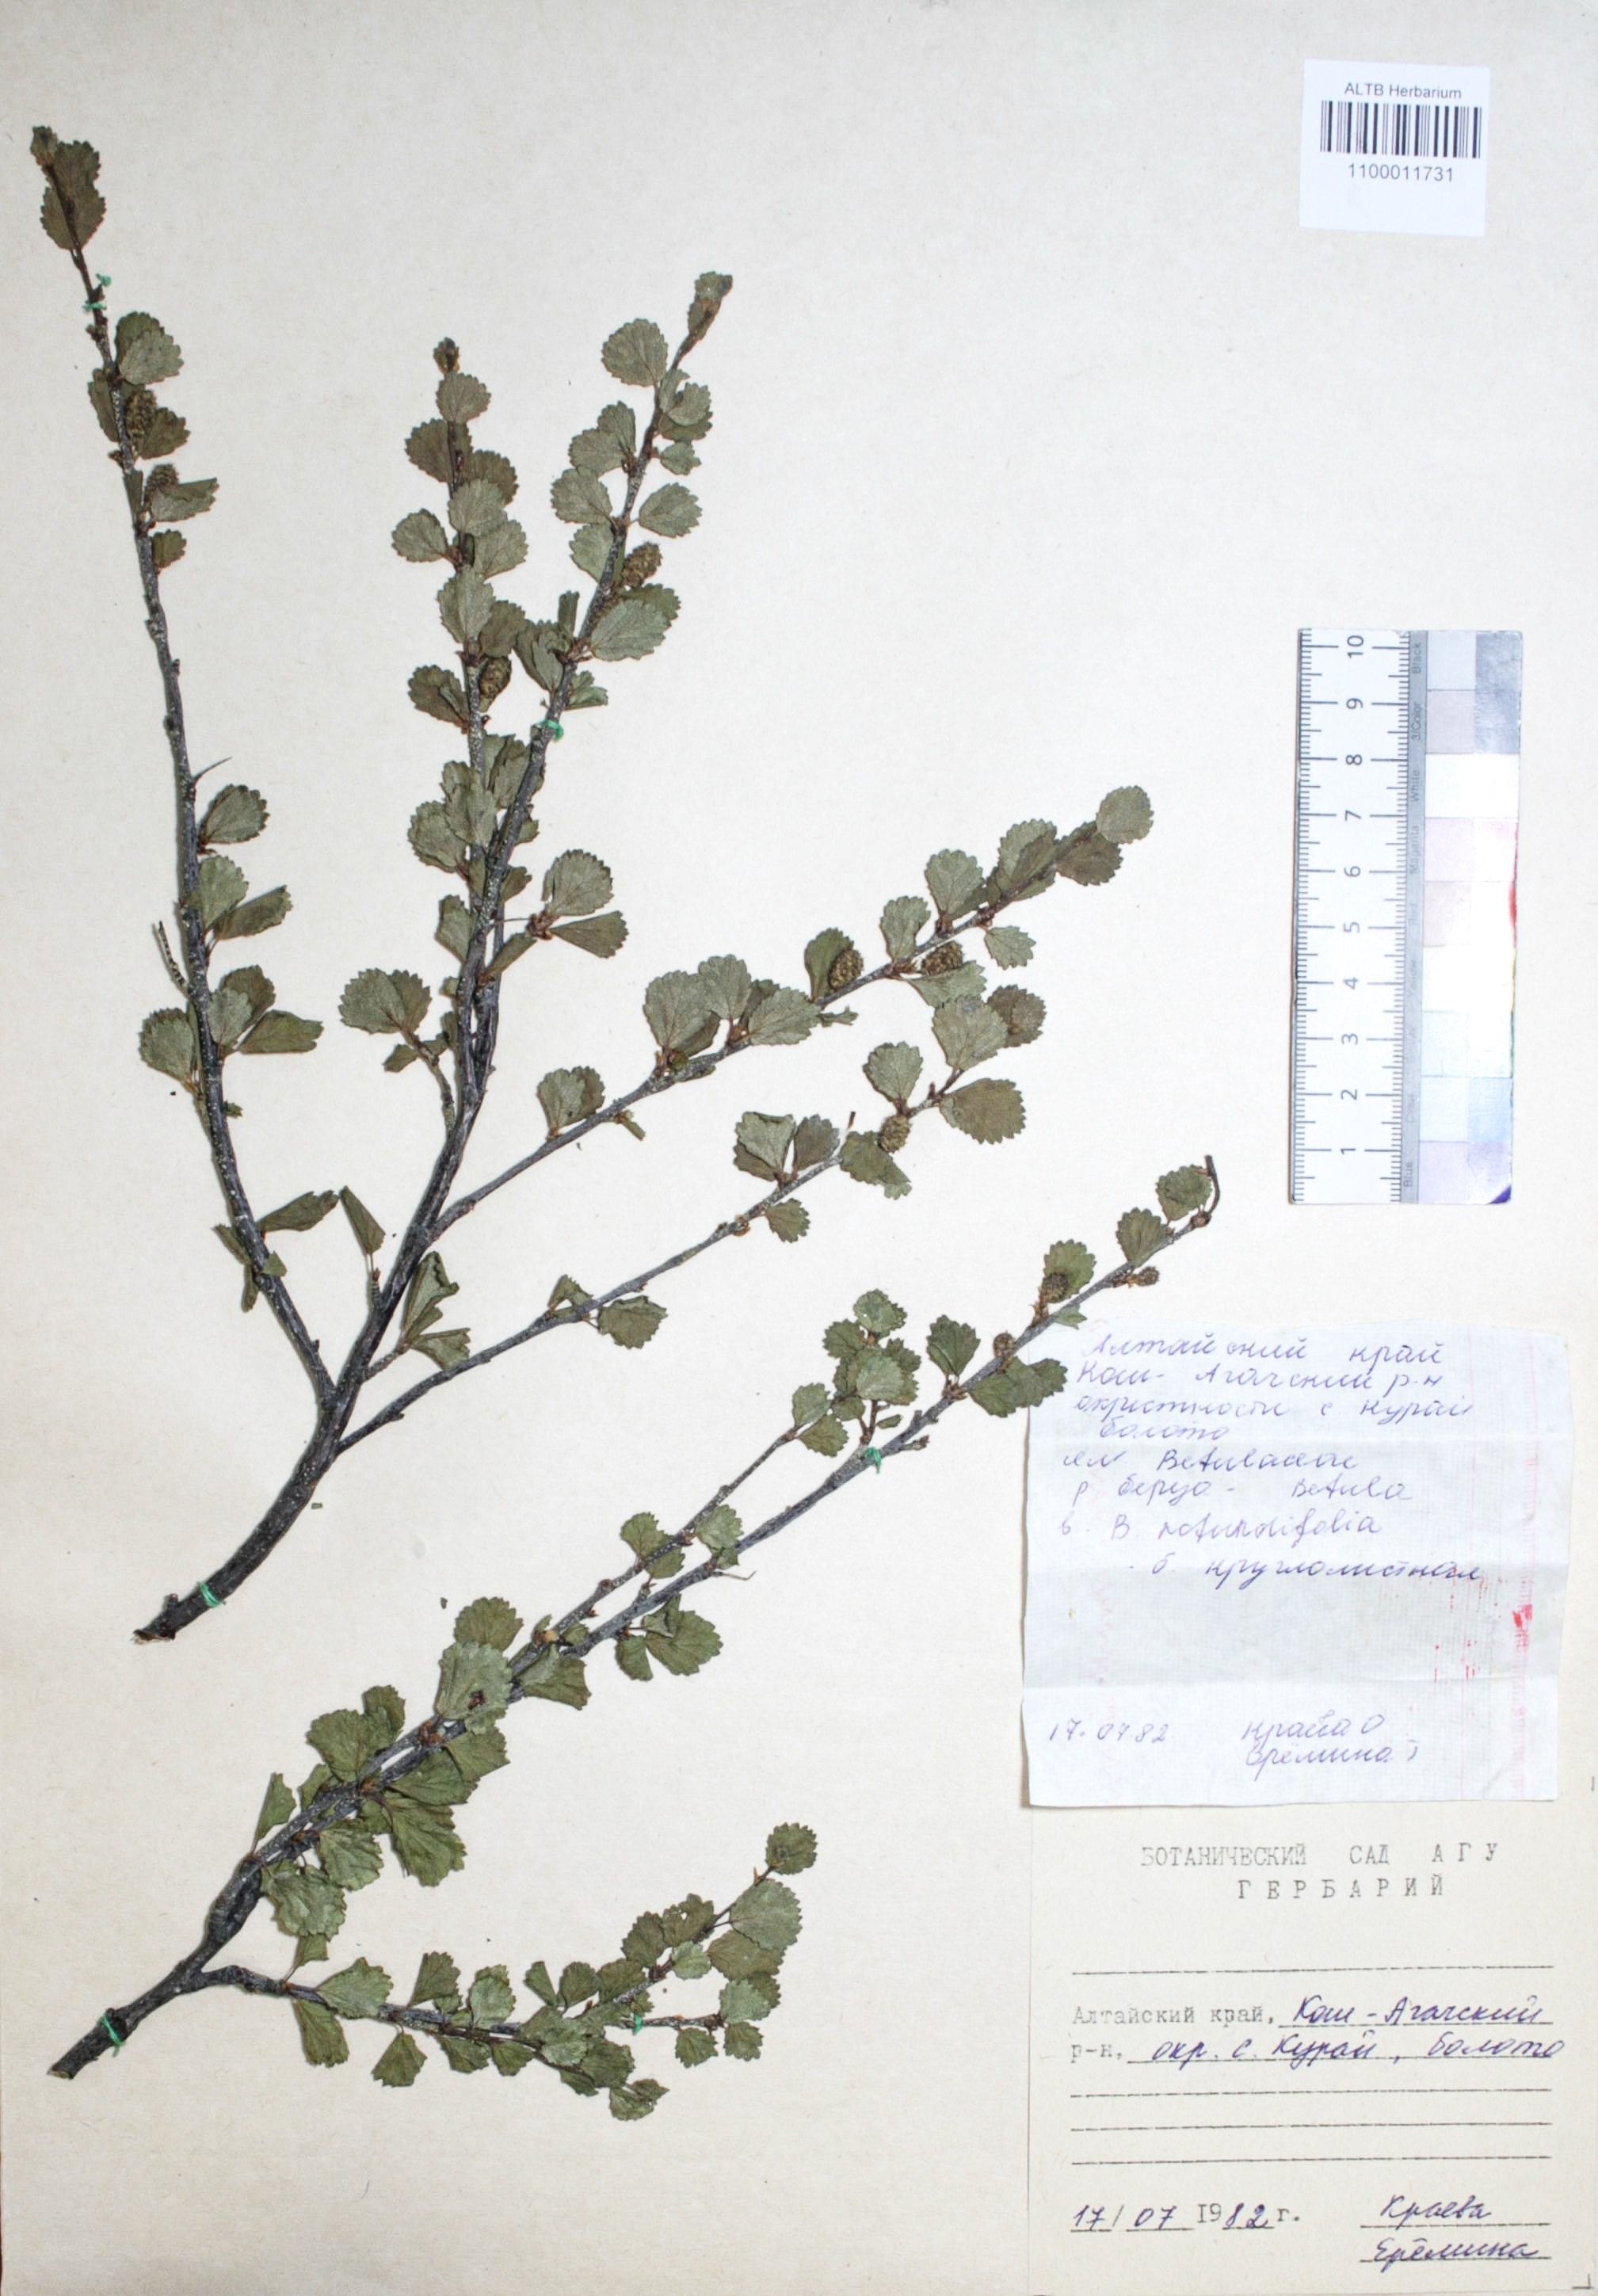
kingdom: Plantae
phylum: Tracheophyta
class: Magnoliopsida
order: Fagales
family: Betulaceae
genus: Betula
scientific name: Betula glandulosa
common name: Dwarf birch
